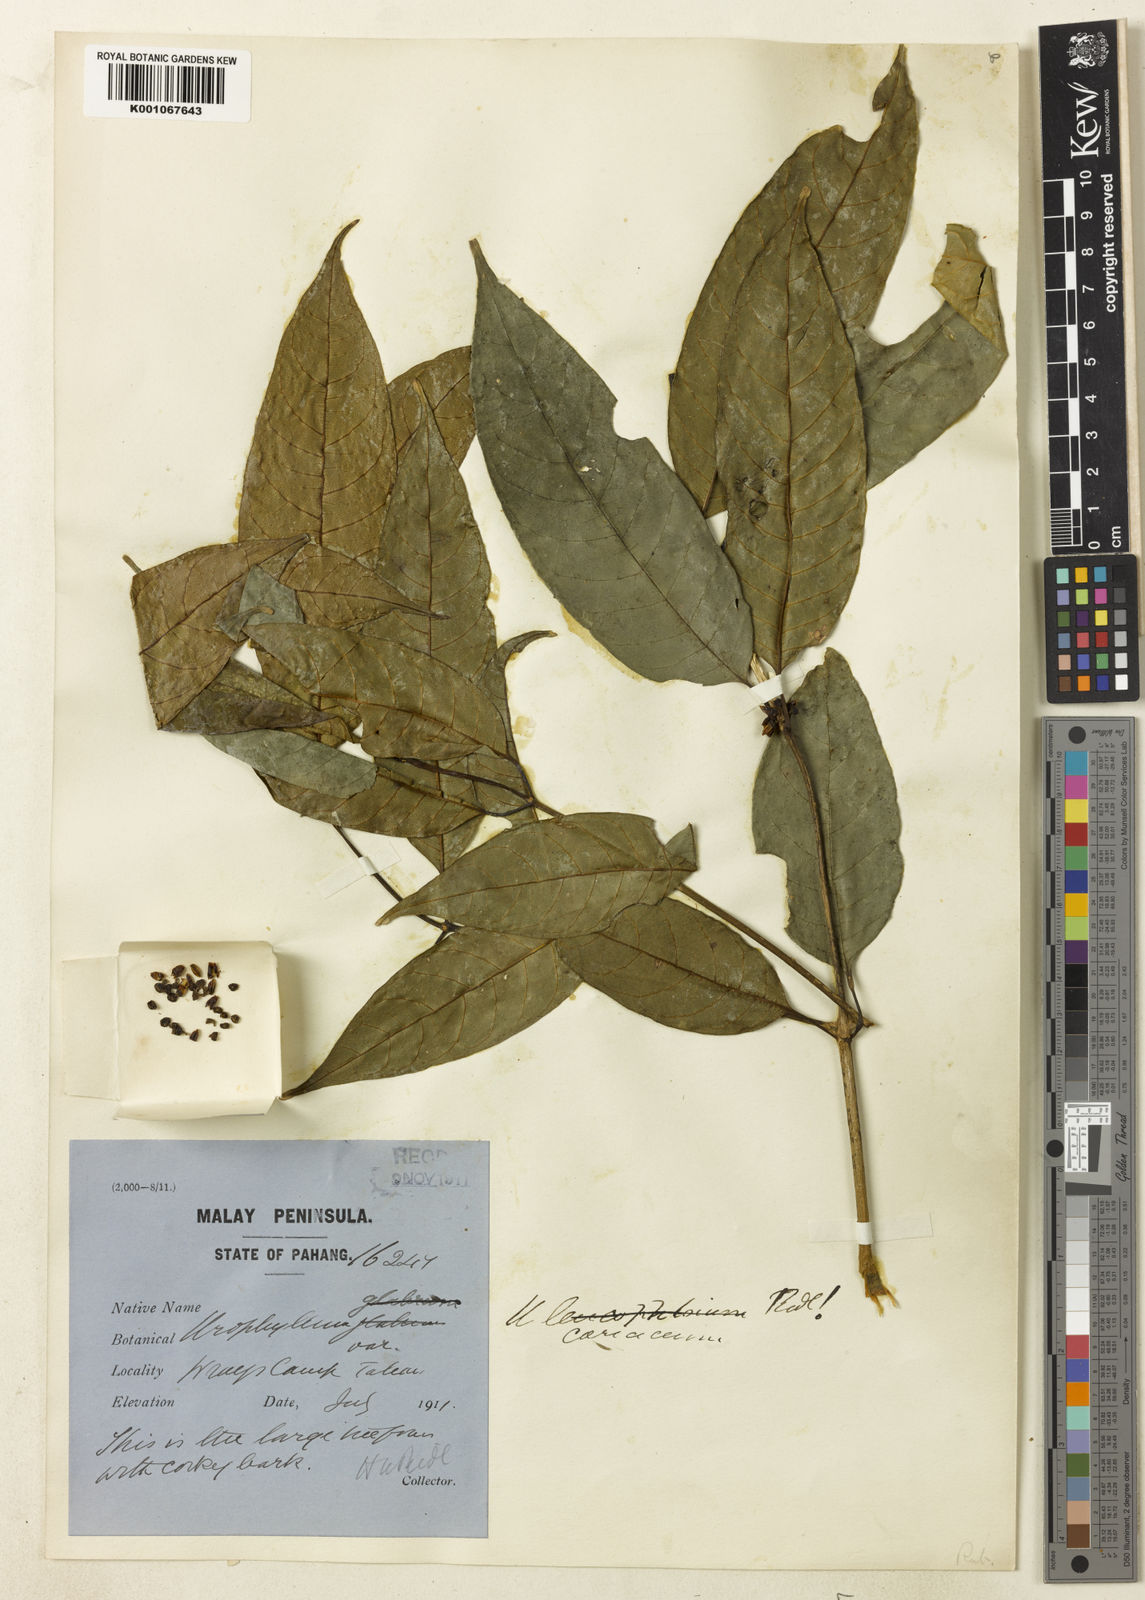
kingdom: Plantae
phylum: Tracheophyta
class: Magnoliopsida
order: Gentianales
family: Rubiaceae
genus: Urophyllum
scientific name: Urophyllum leucophlaeum
